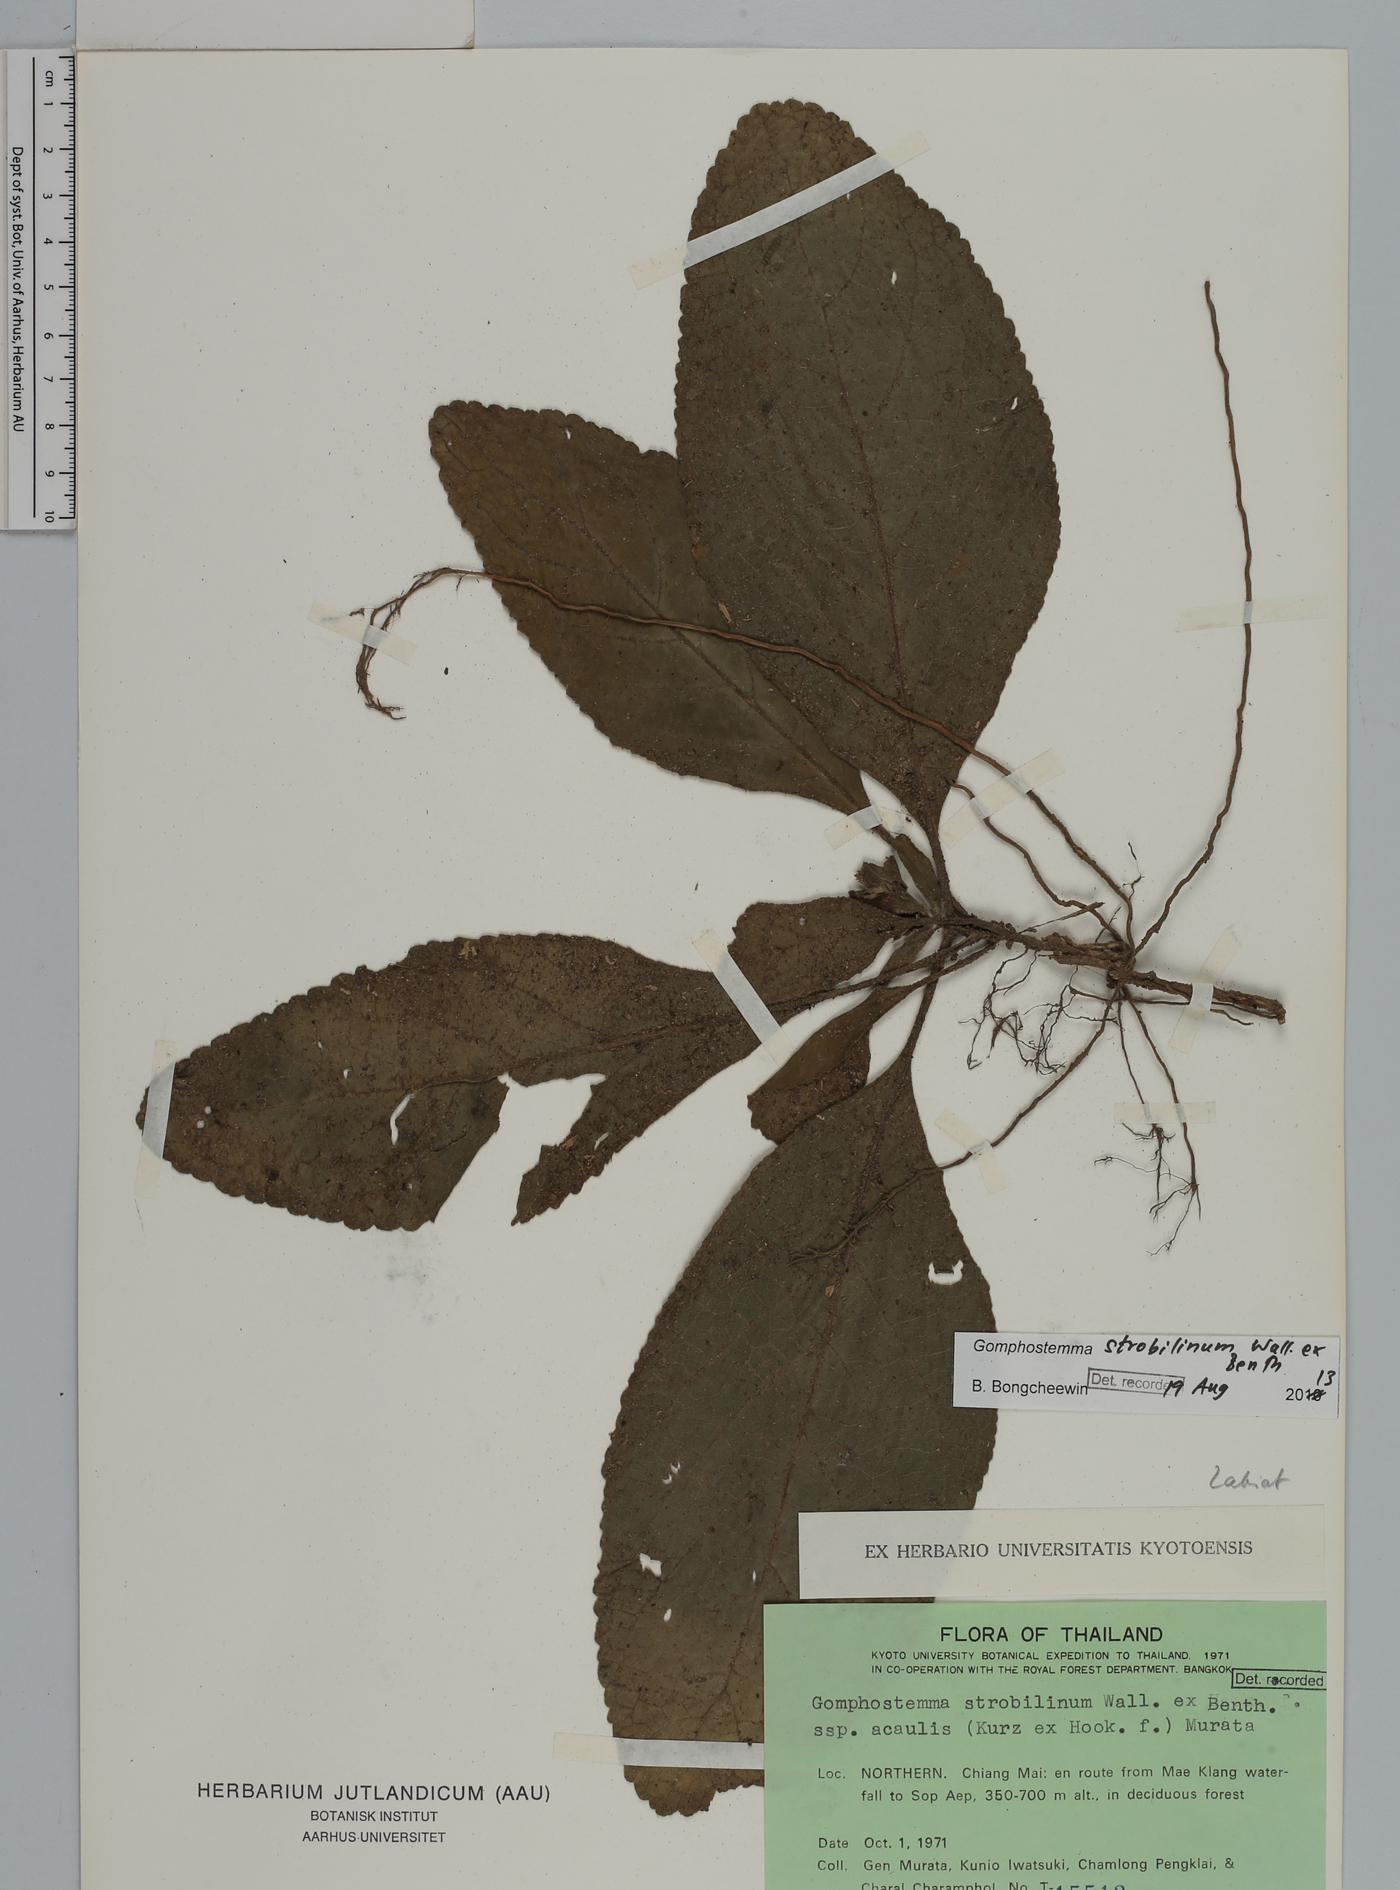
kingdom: Plantae
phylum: Tracheophyta
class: Magnoliopsida
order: Lamiales
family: Lamiaceae
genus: Gomphostemma
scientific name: Gomphostemma strobilinum
